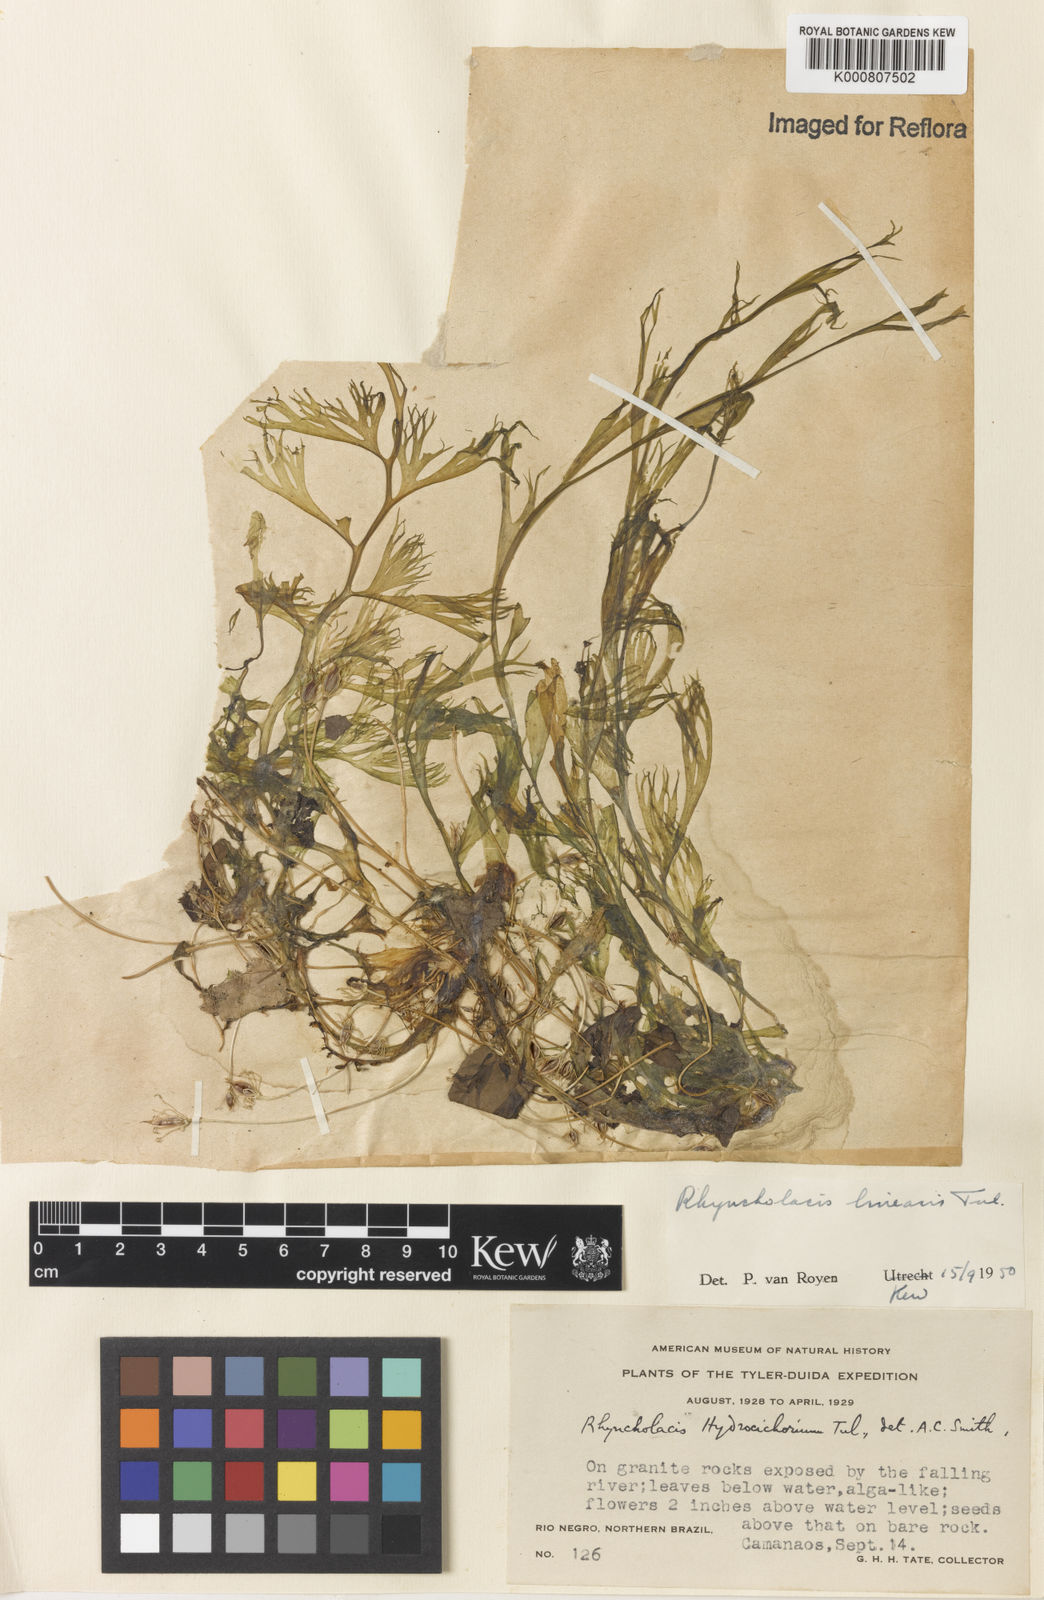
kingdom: Plantae
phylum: Tracheophyta
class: Magnoliopsida
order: Malpighiales
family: Podostemaceae
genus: Rhyncholacis
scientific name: Rhyncholacis linearis
